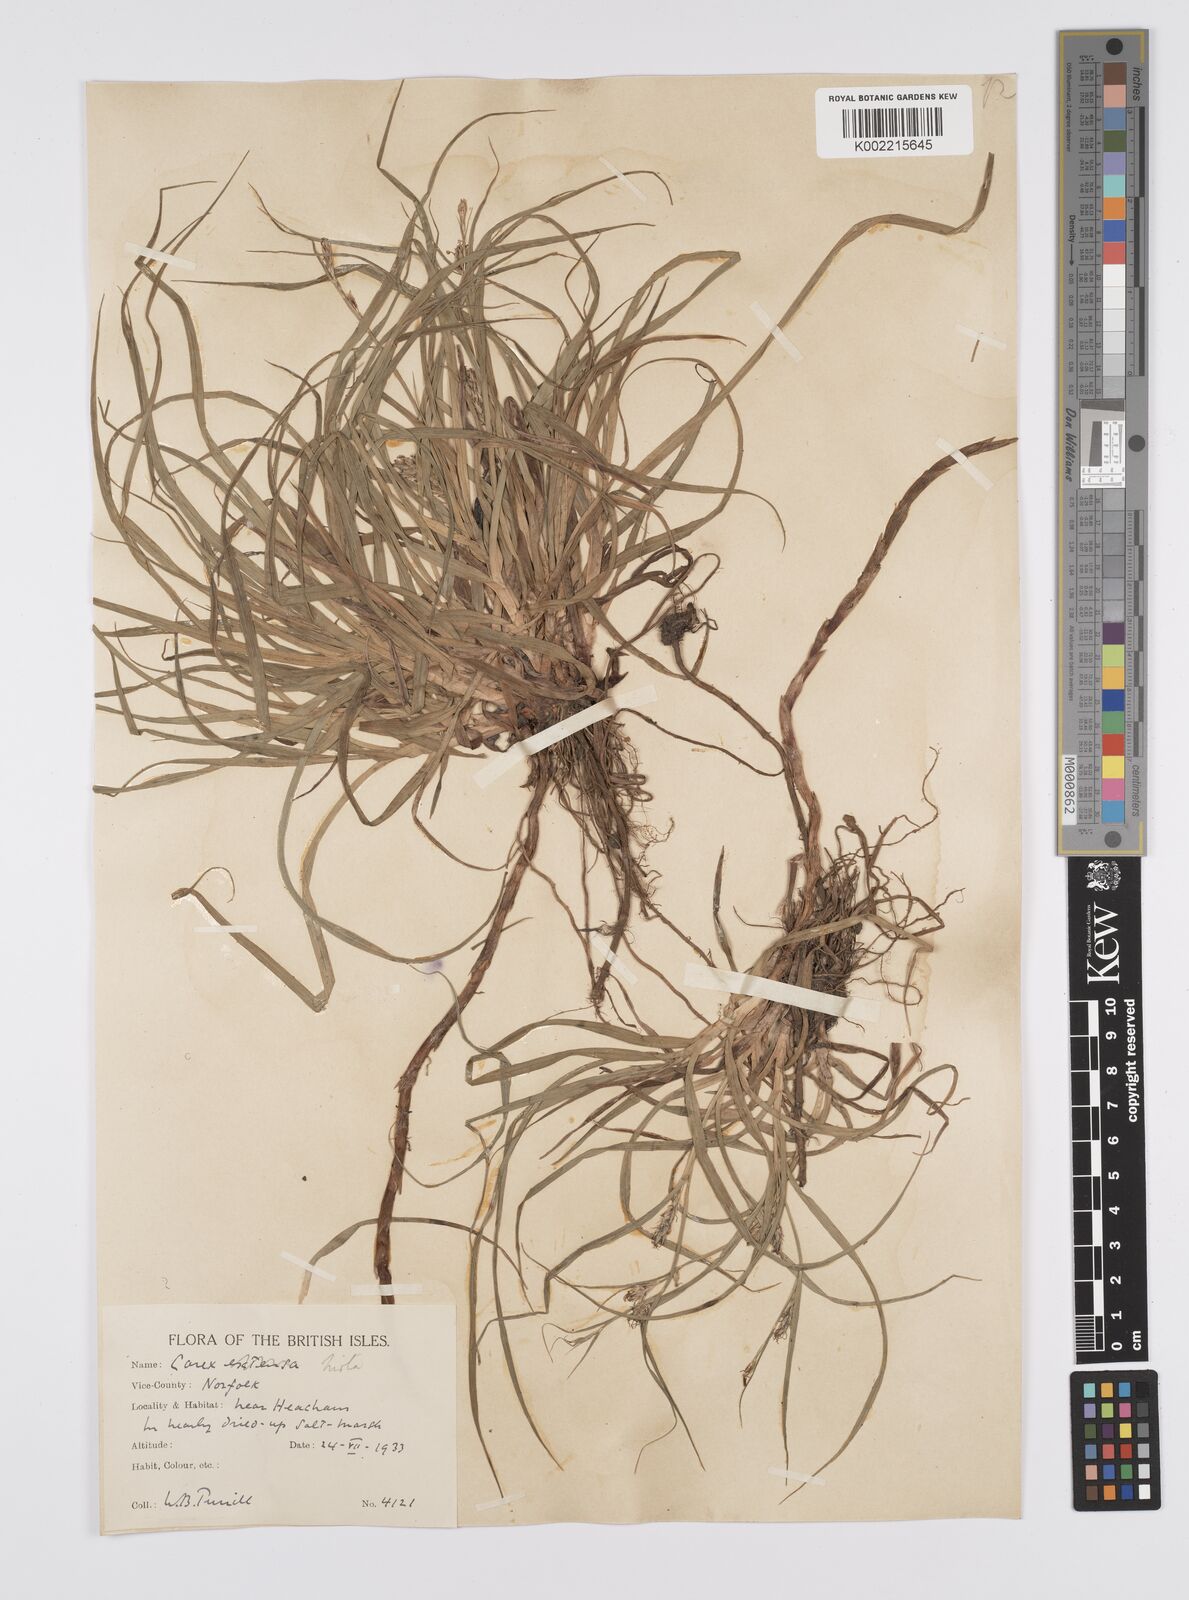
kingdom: Plantae
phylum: Tracheophyta
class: Liliopsida
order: Poales
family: Cyperaceae
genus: Carex
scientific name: Carex hirta
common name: Hairy sedge
